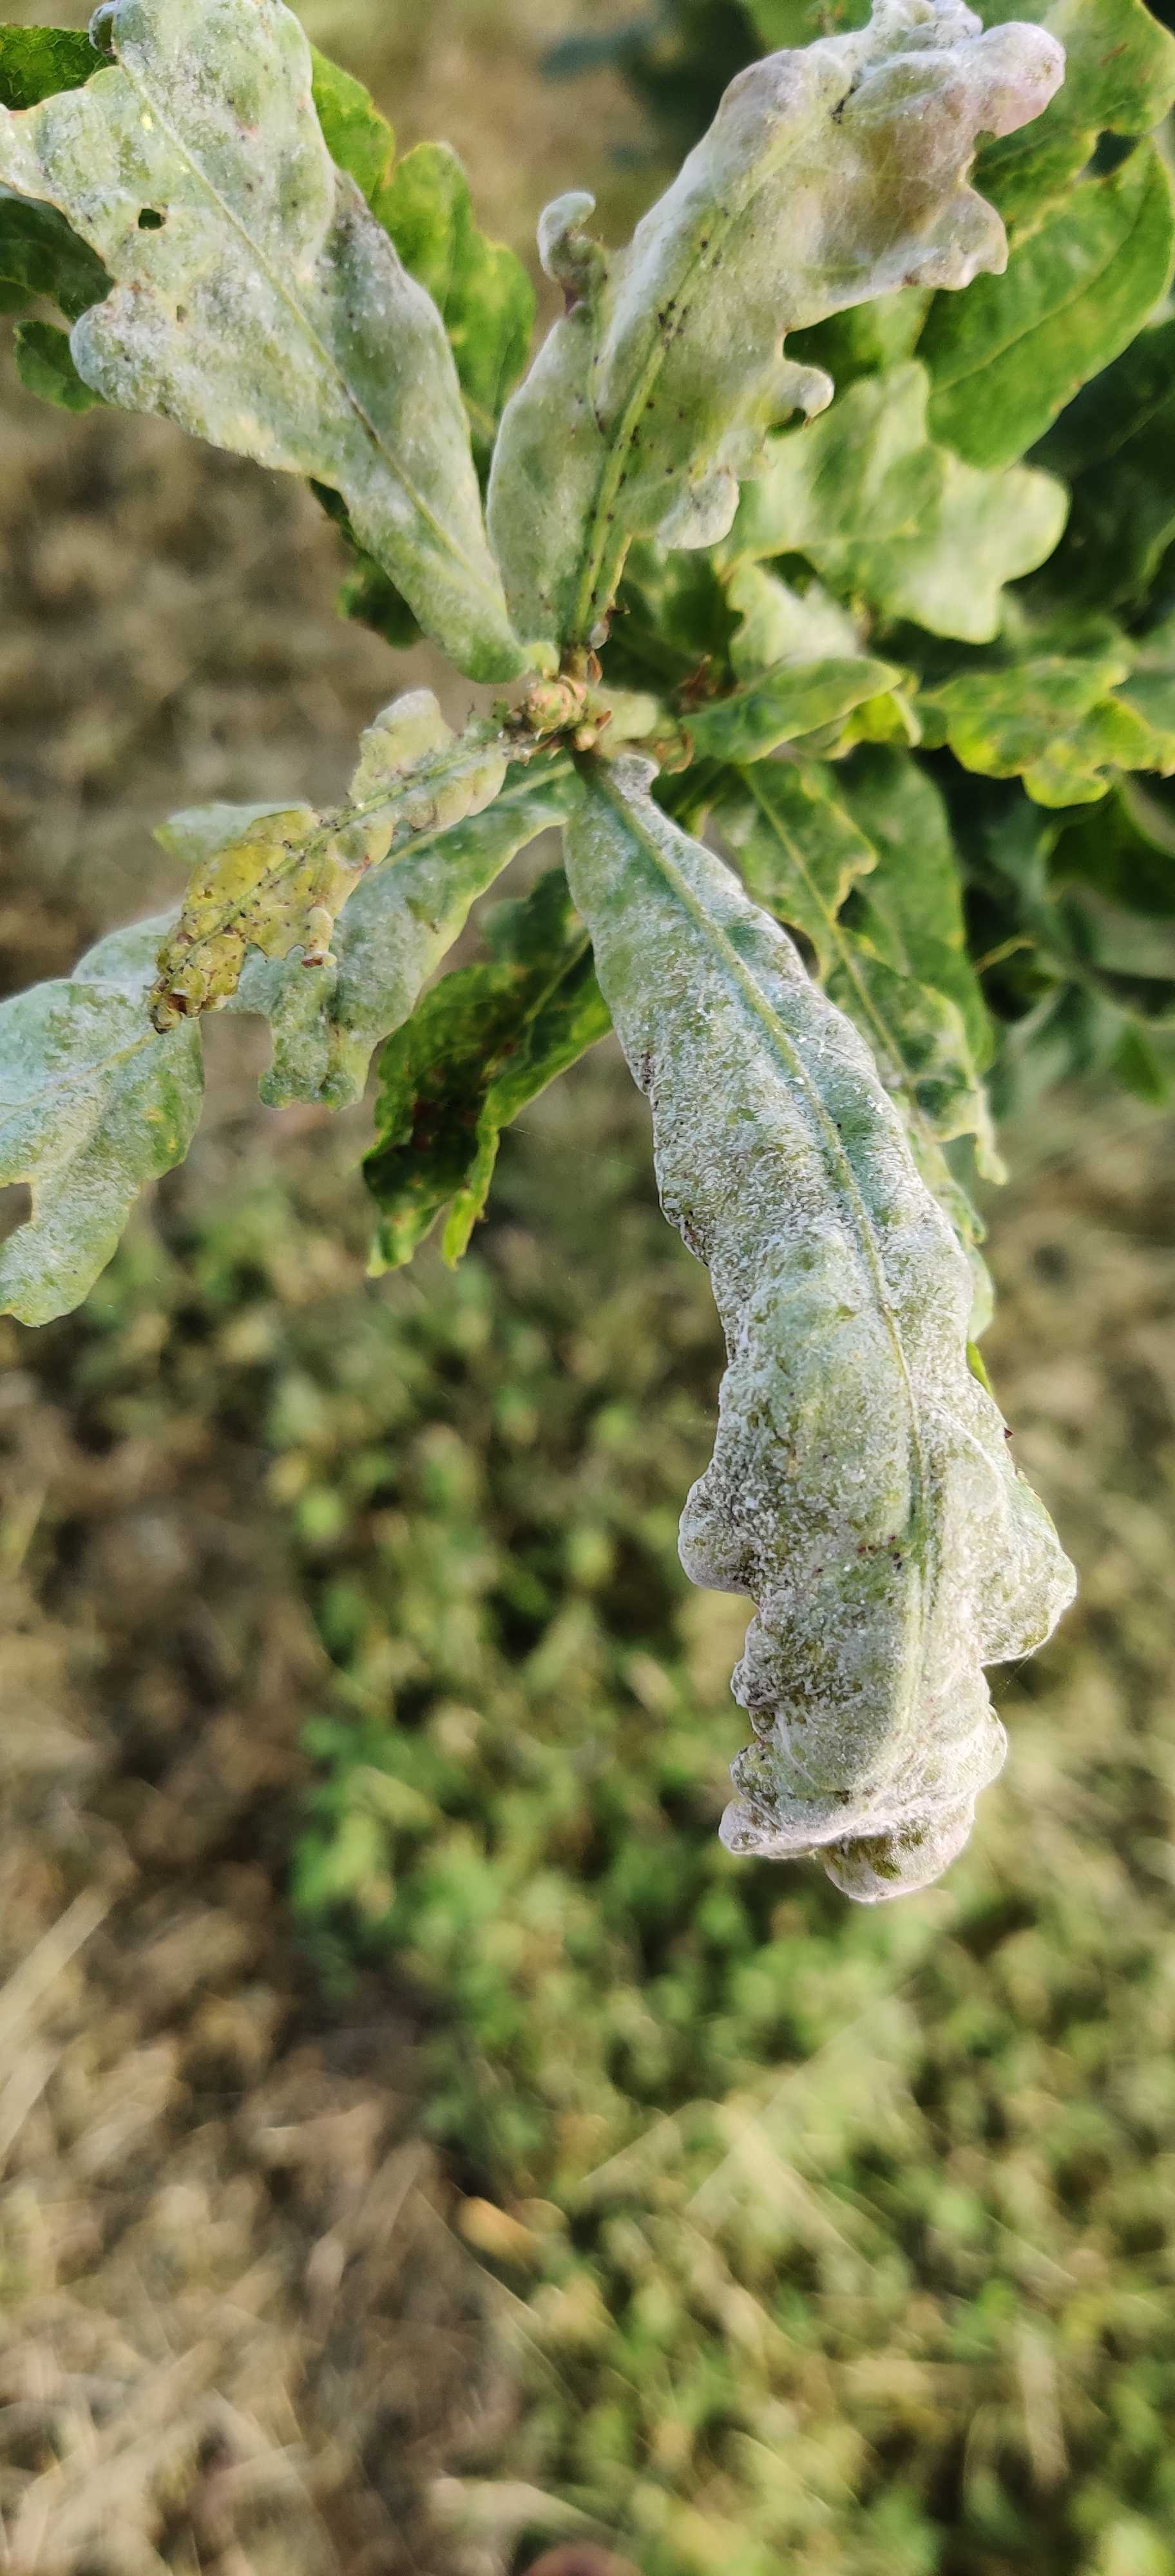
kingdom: Fungi
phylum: Ascomycota
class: Leotiomycetes
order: Helotiales
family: Erysiphaceae
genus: Erysiphe
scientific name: Erysiphe alphitoides
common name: ege-meldug
